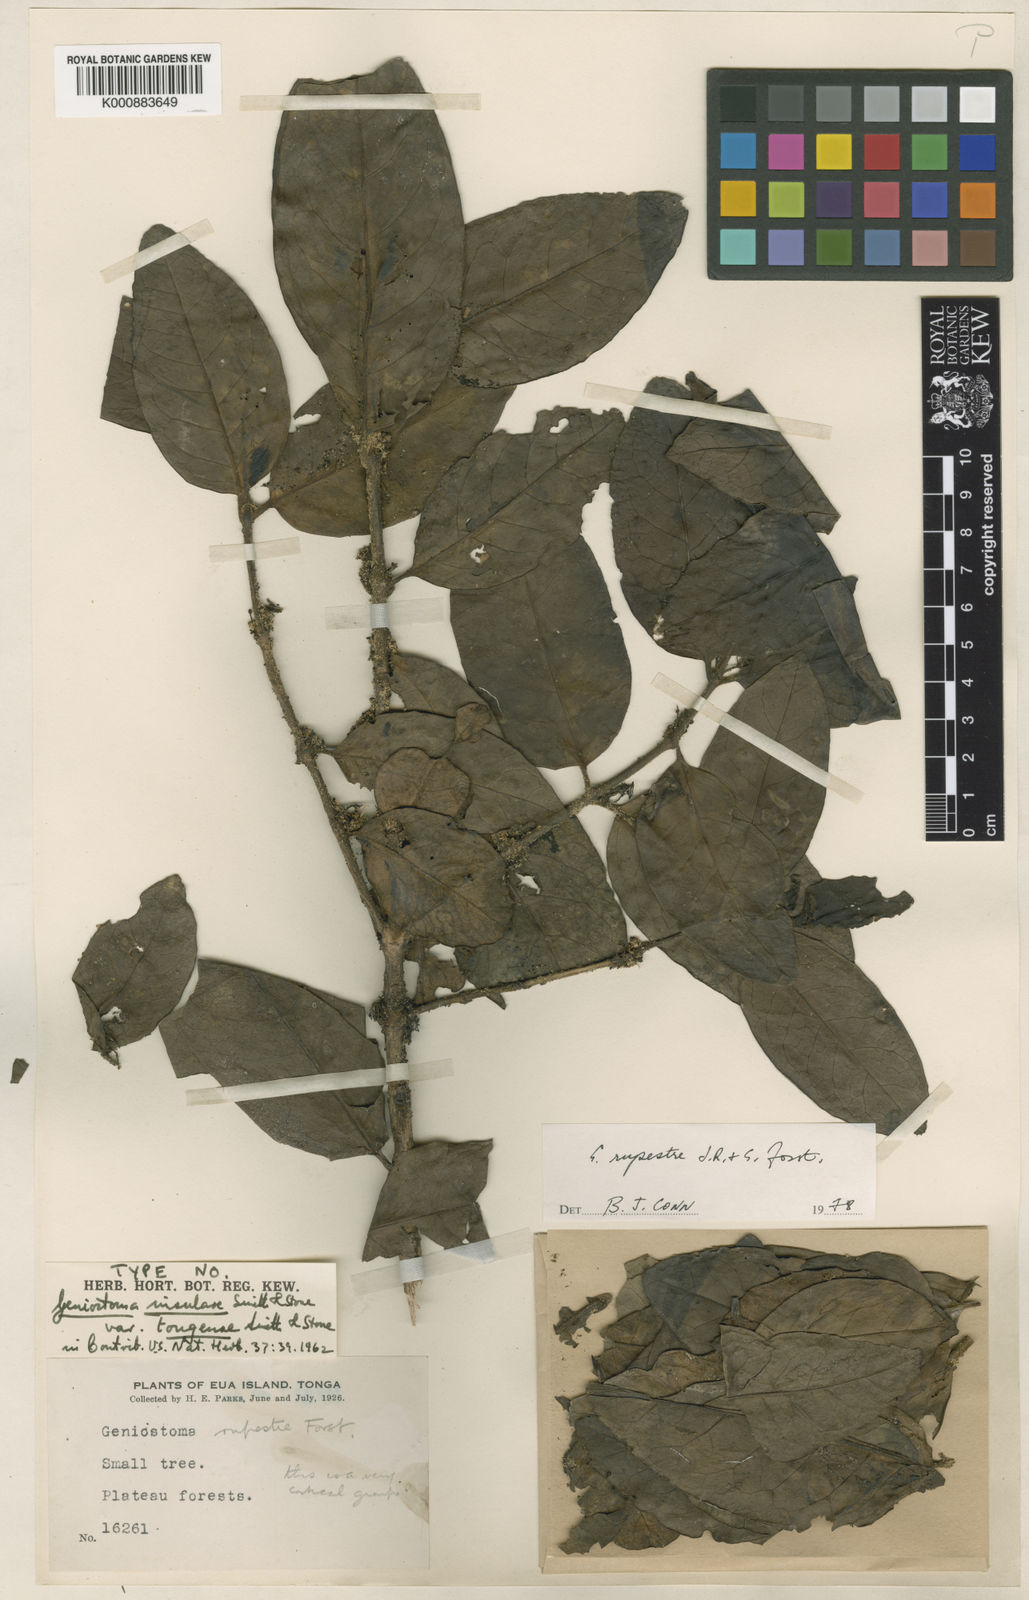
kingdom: Plantae
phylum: Tracheophyta
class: Magnoliopsida
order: Gentianales
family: Loganiaceae
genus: Geniostoma
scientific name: Geniostoma rupestre
